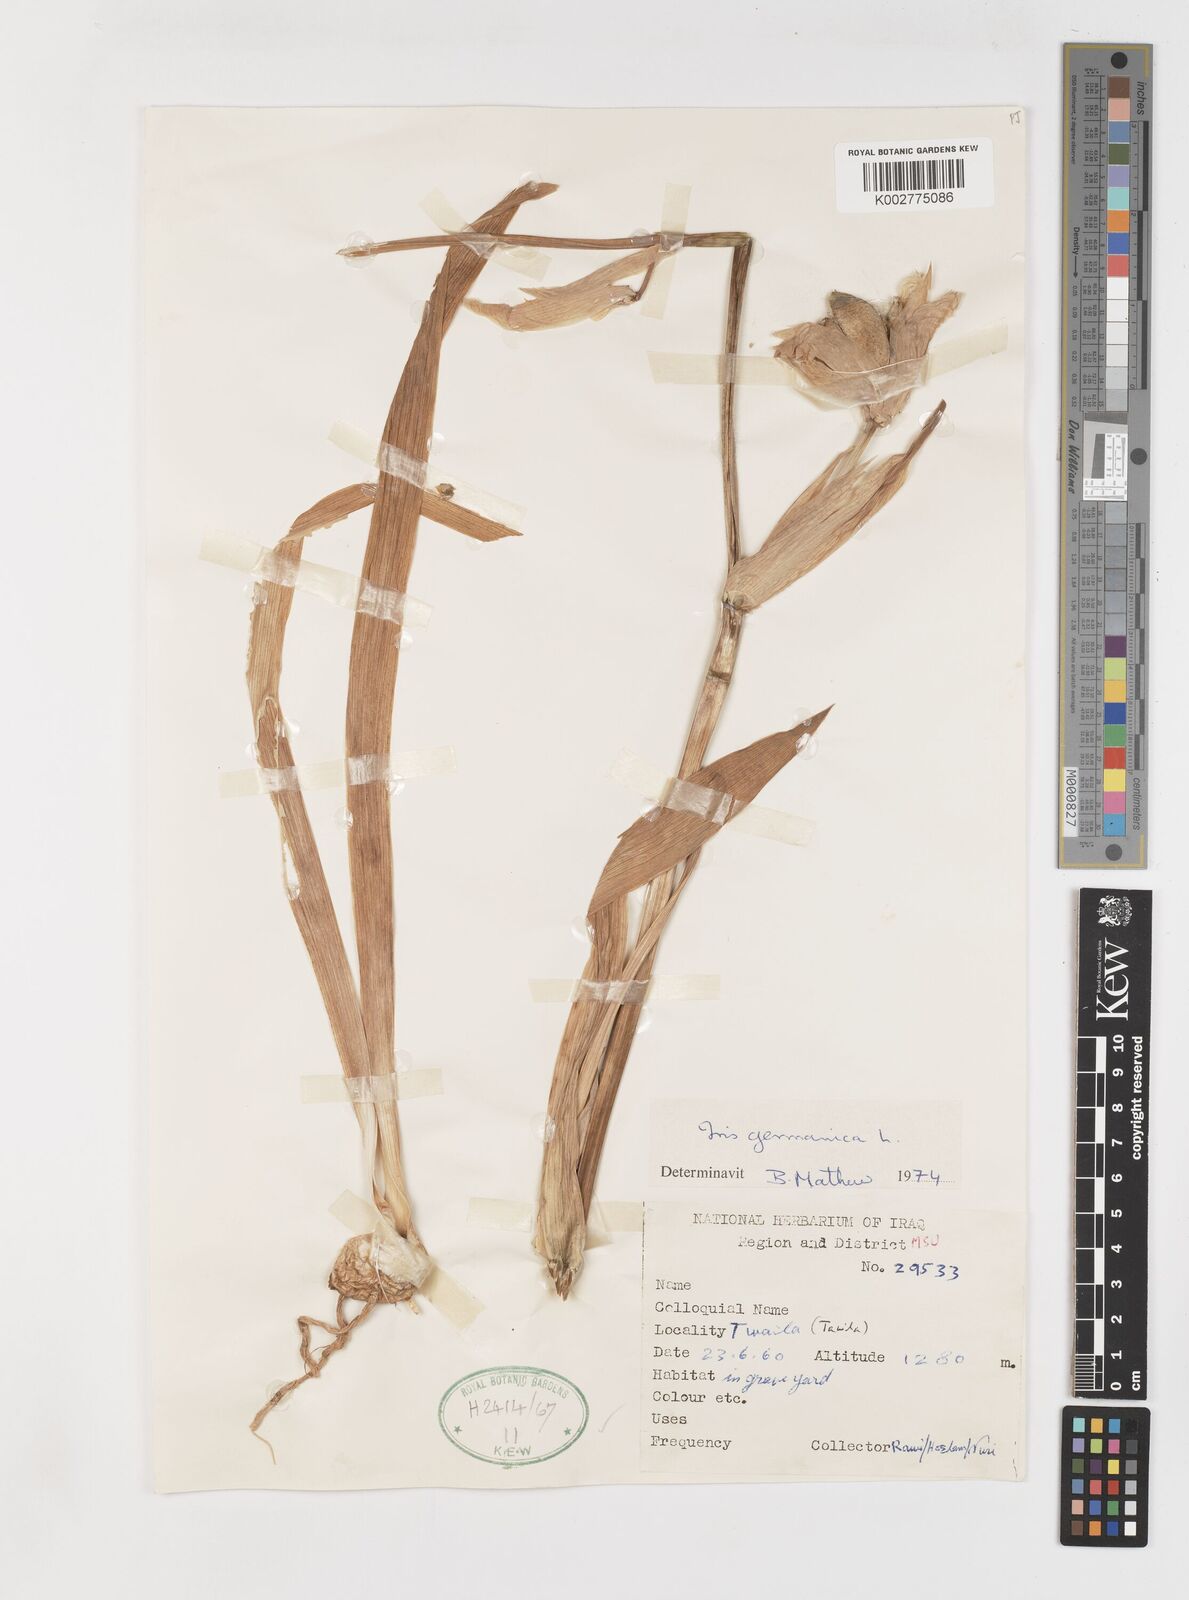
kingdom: Plantae
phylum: Tracheophyta
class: Liliopsida
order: Asparagales
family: Iridaceae
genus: Iris
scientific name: Iris germanica
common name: German iris
